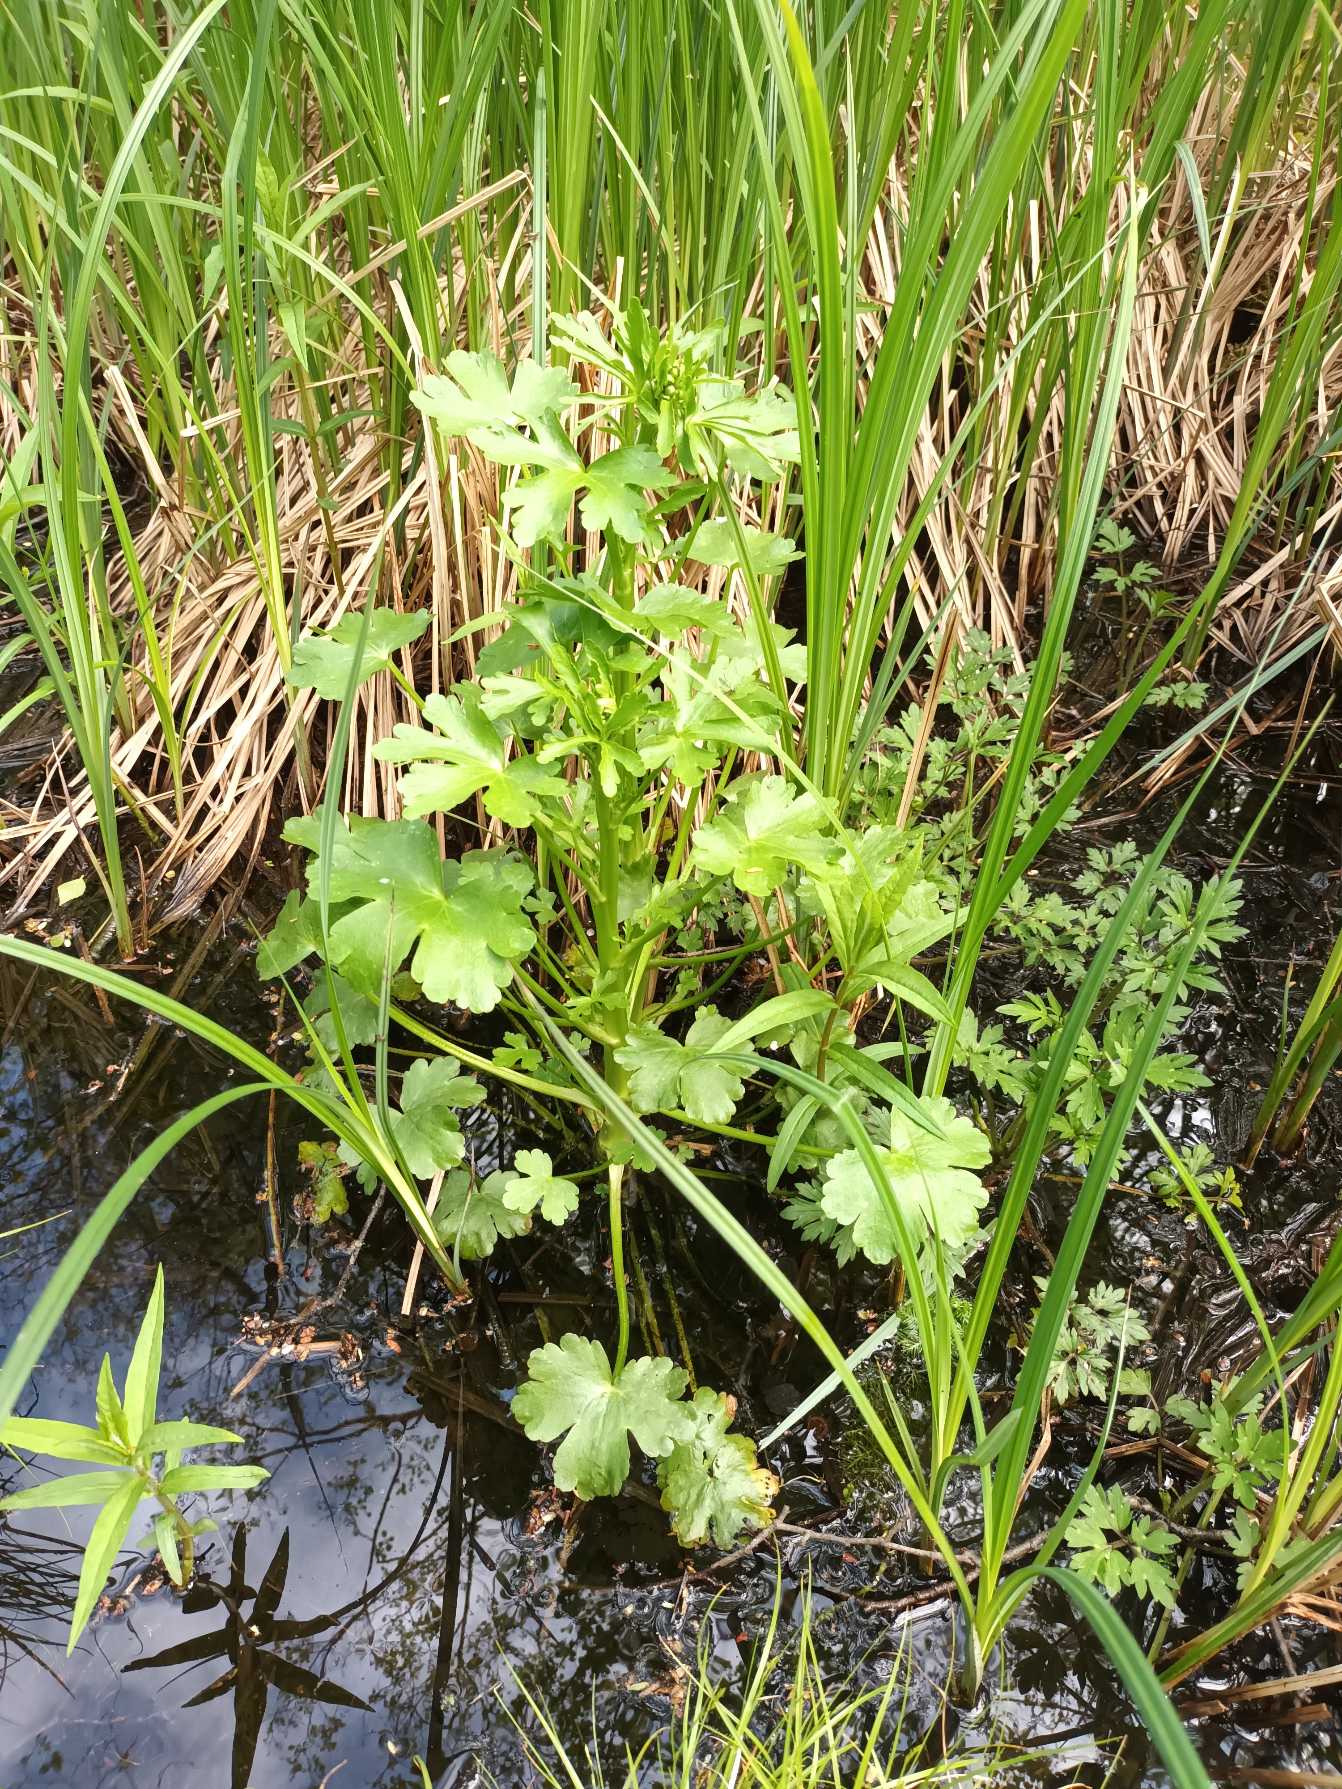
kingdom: Plantae
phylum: Tracheophyta
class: Magnoliopsida
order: Ranunculales
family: Ranunculaceae
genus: Ranunculus
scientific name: Ranunculus sceleratus
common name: Tigger-ranunkel
